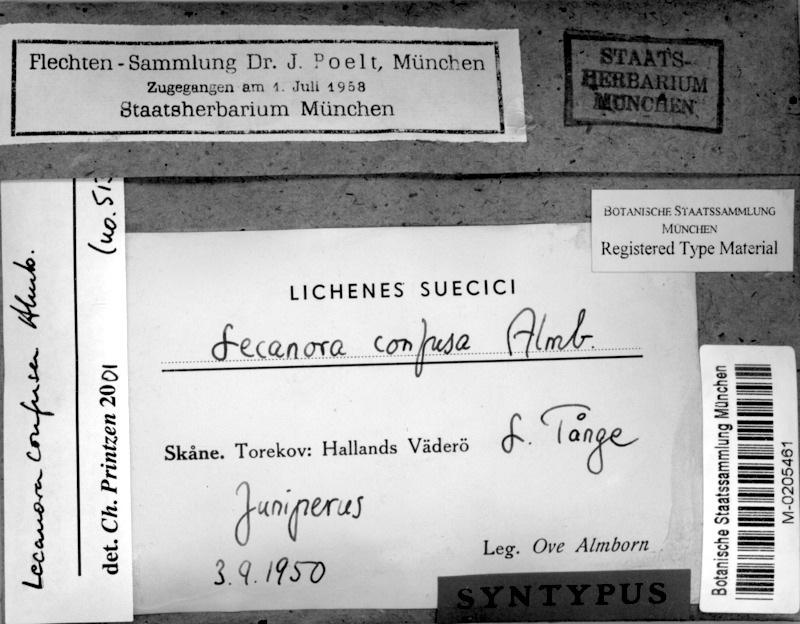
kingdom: Fungi
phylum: Ascomycota
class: Lecanoromycetes
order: Lecanorales
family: Lecanoraceae
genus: Lecanora
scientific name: Lecanora confusa
